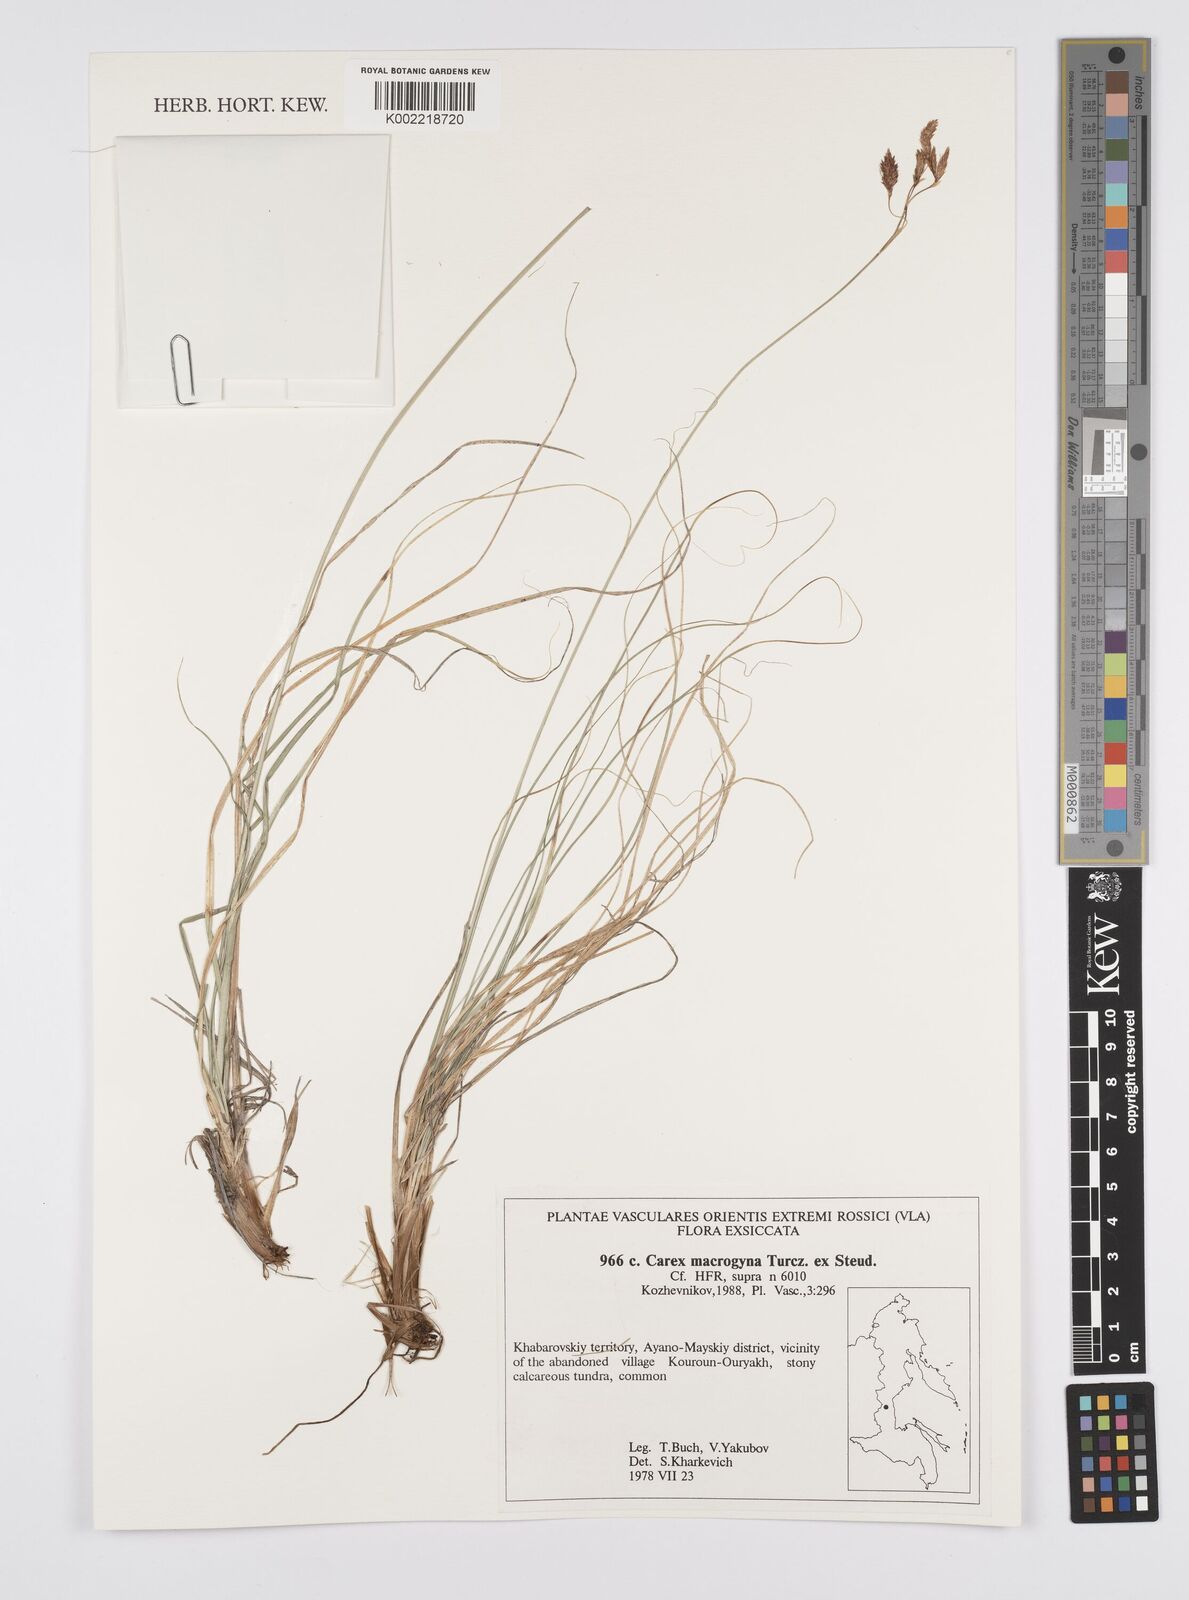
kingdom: Plantae
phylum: Tracheophyta
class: Liliopsida
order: Poales
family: Cyperaceae
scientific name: Cyperaceae
